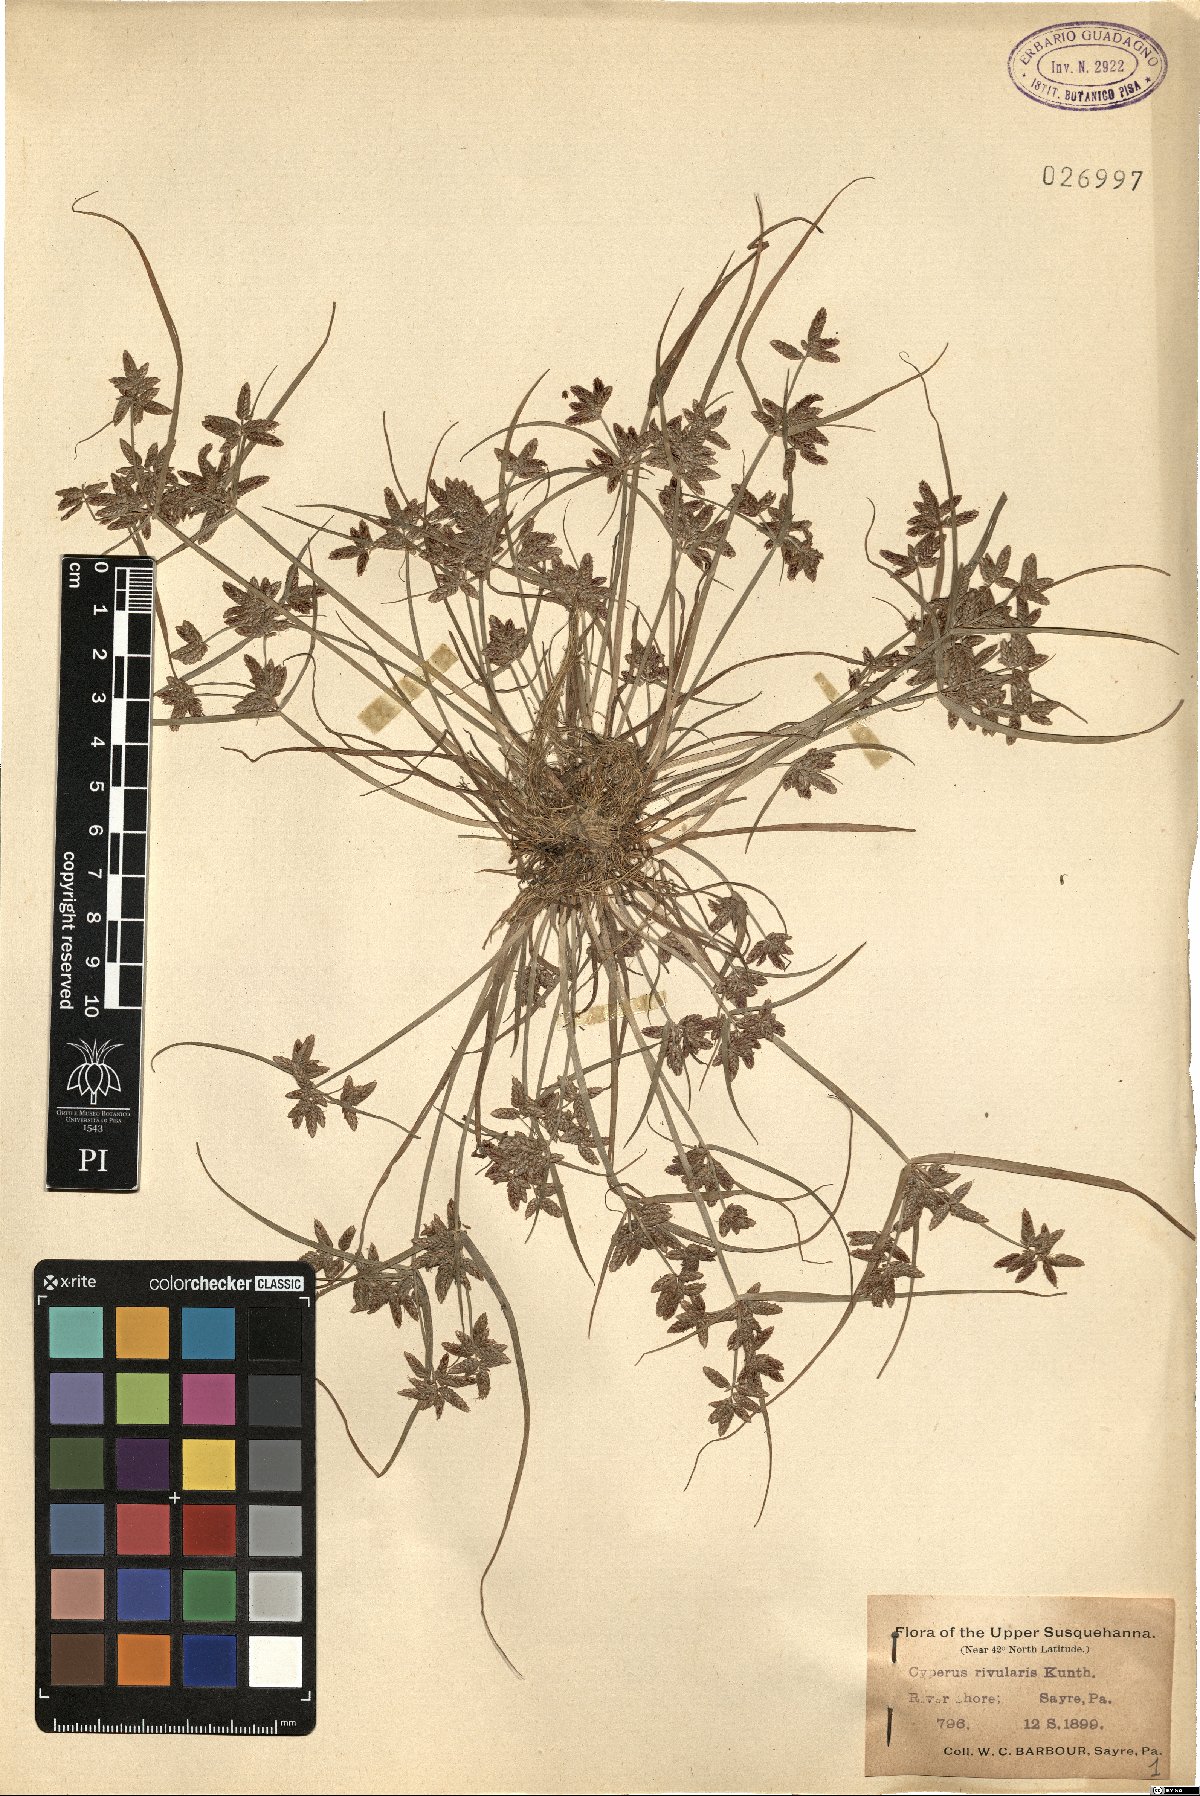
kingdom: Plantae
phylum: Tracheophyta
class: Liliopsida
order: Poales
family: Cyperaceae
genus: Cyperus
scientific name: Cyperus bipartitus
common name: Brook flatsedge
